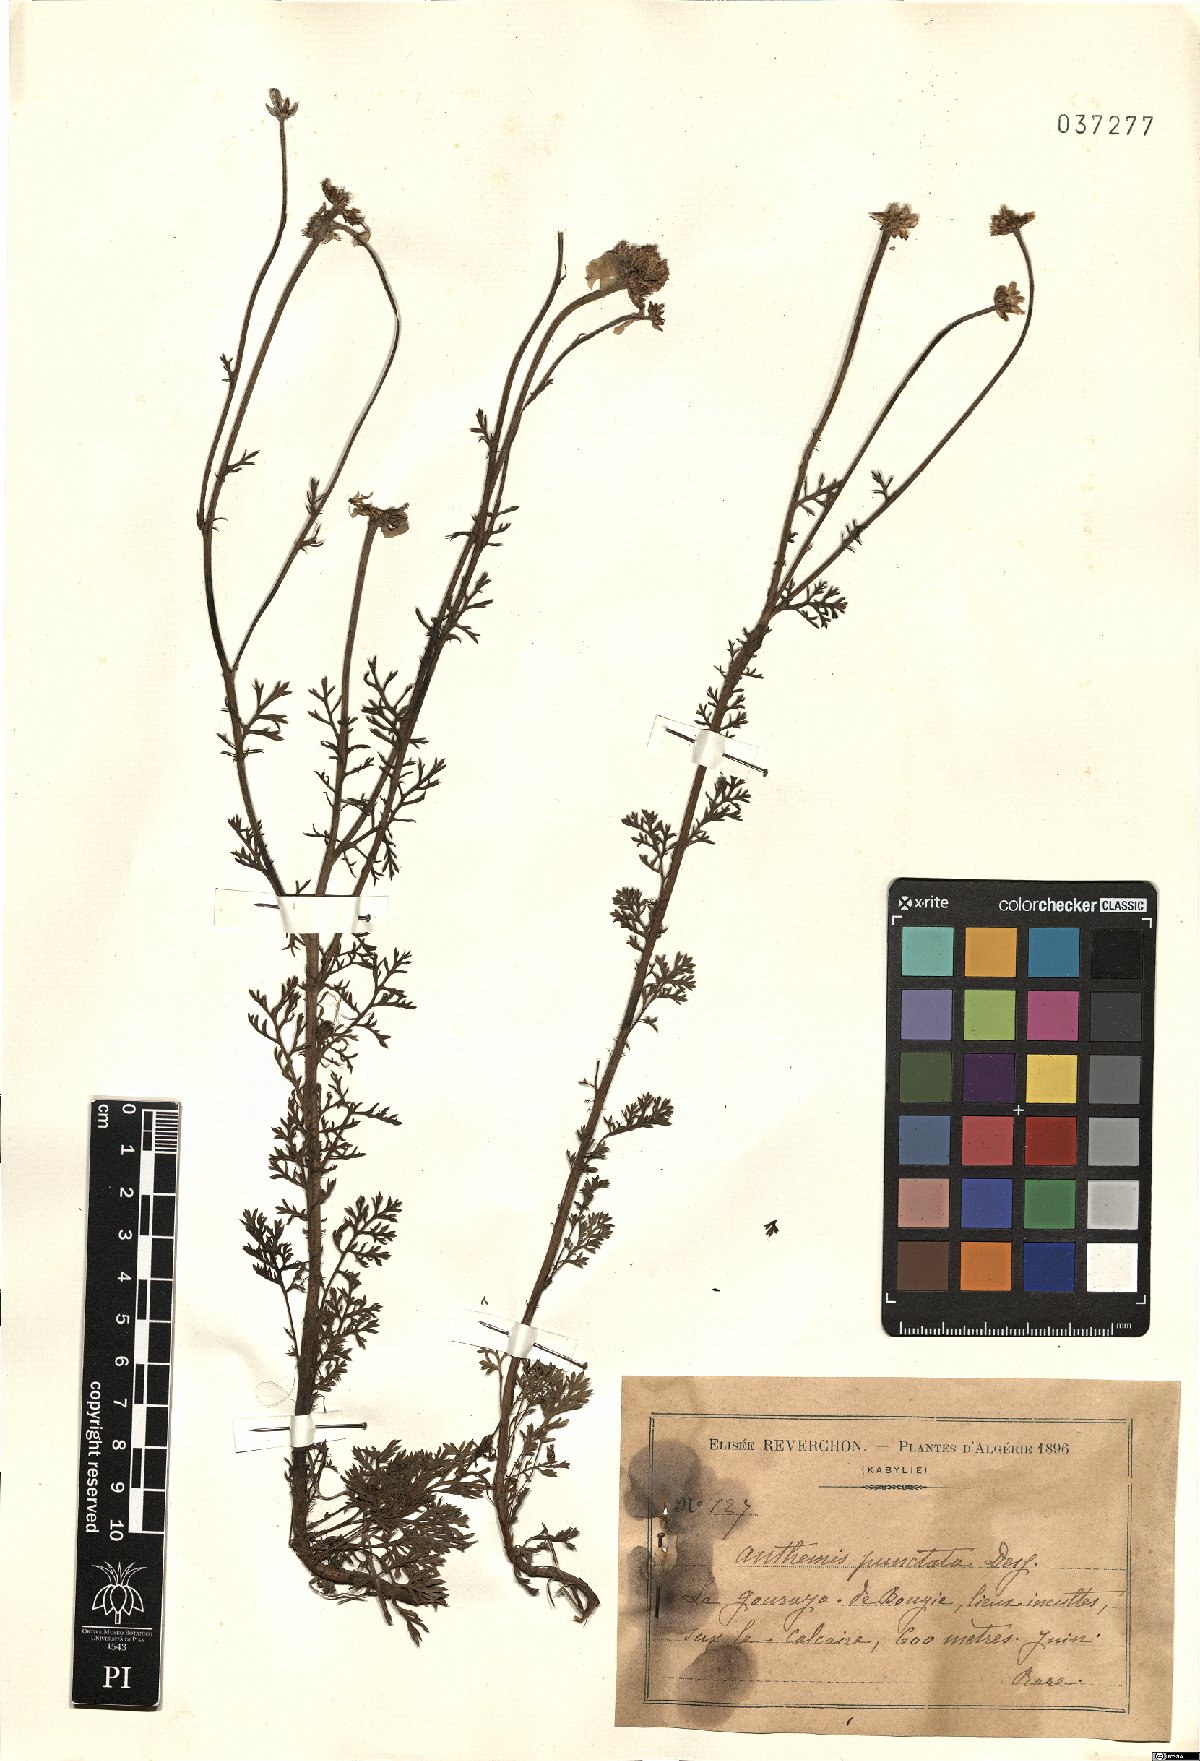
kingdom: Plantae
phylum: Tracheophyta
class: Magnoliopsida
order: Asterales
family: Asteraceae
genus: Anthemis
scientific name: Anthemis punctata
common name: Sicilian chamomile
